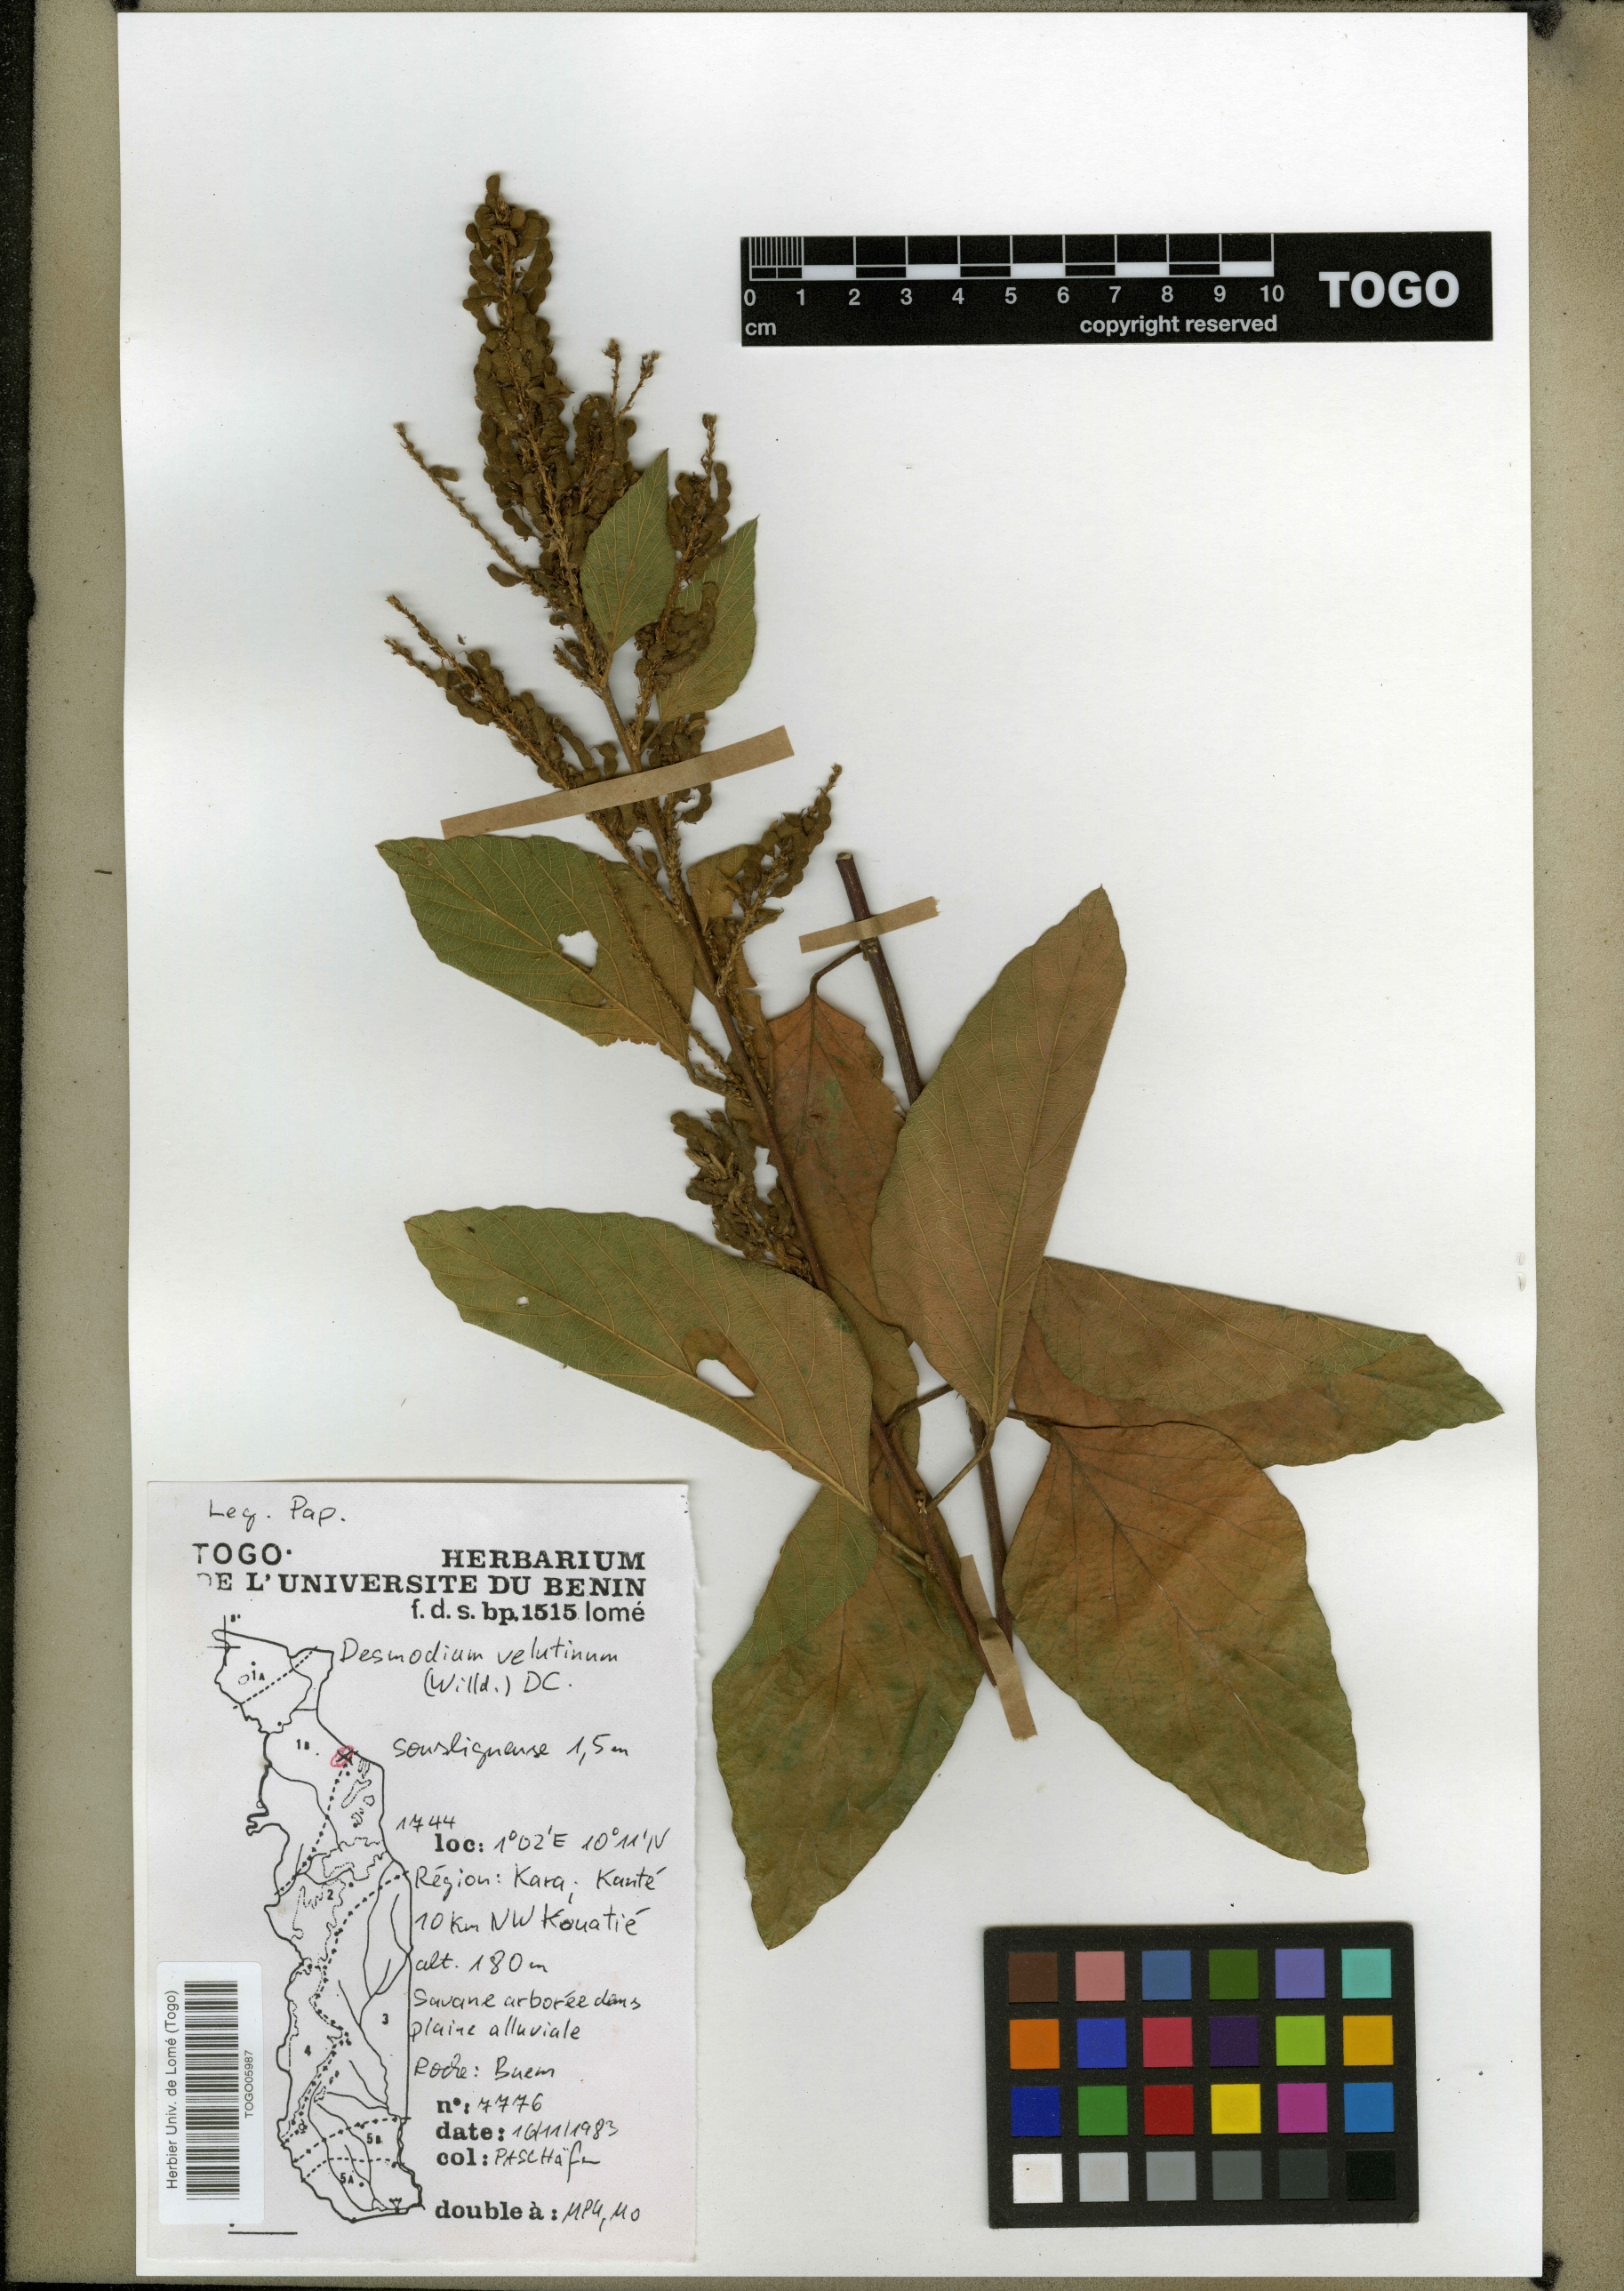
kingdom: Plantae
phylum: Tracheophyta
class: Magnoliopsida
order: Fabales
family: Fabaceae
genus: Polhillides
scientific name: Polhillides velutina
